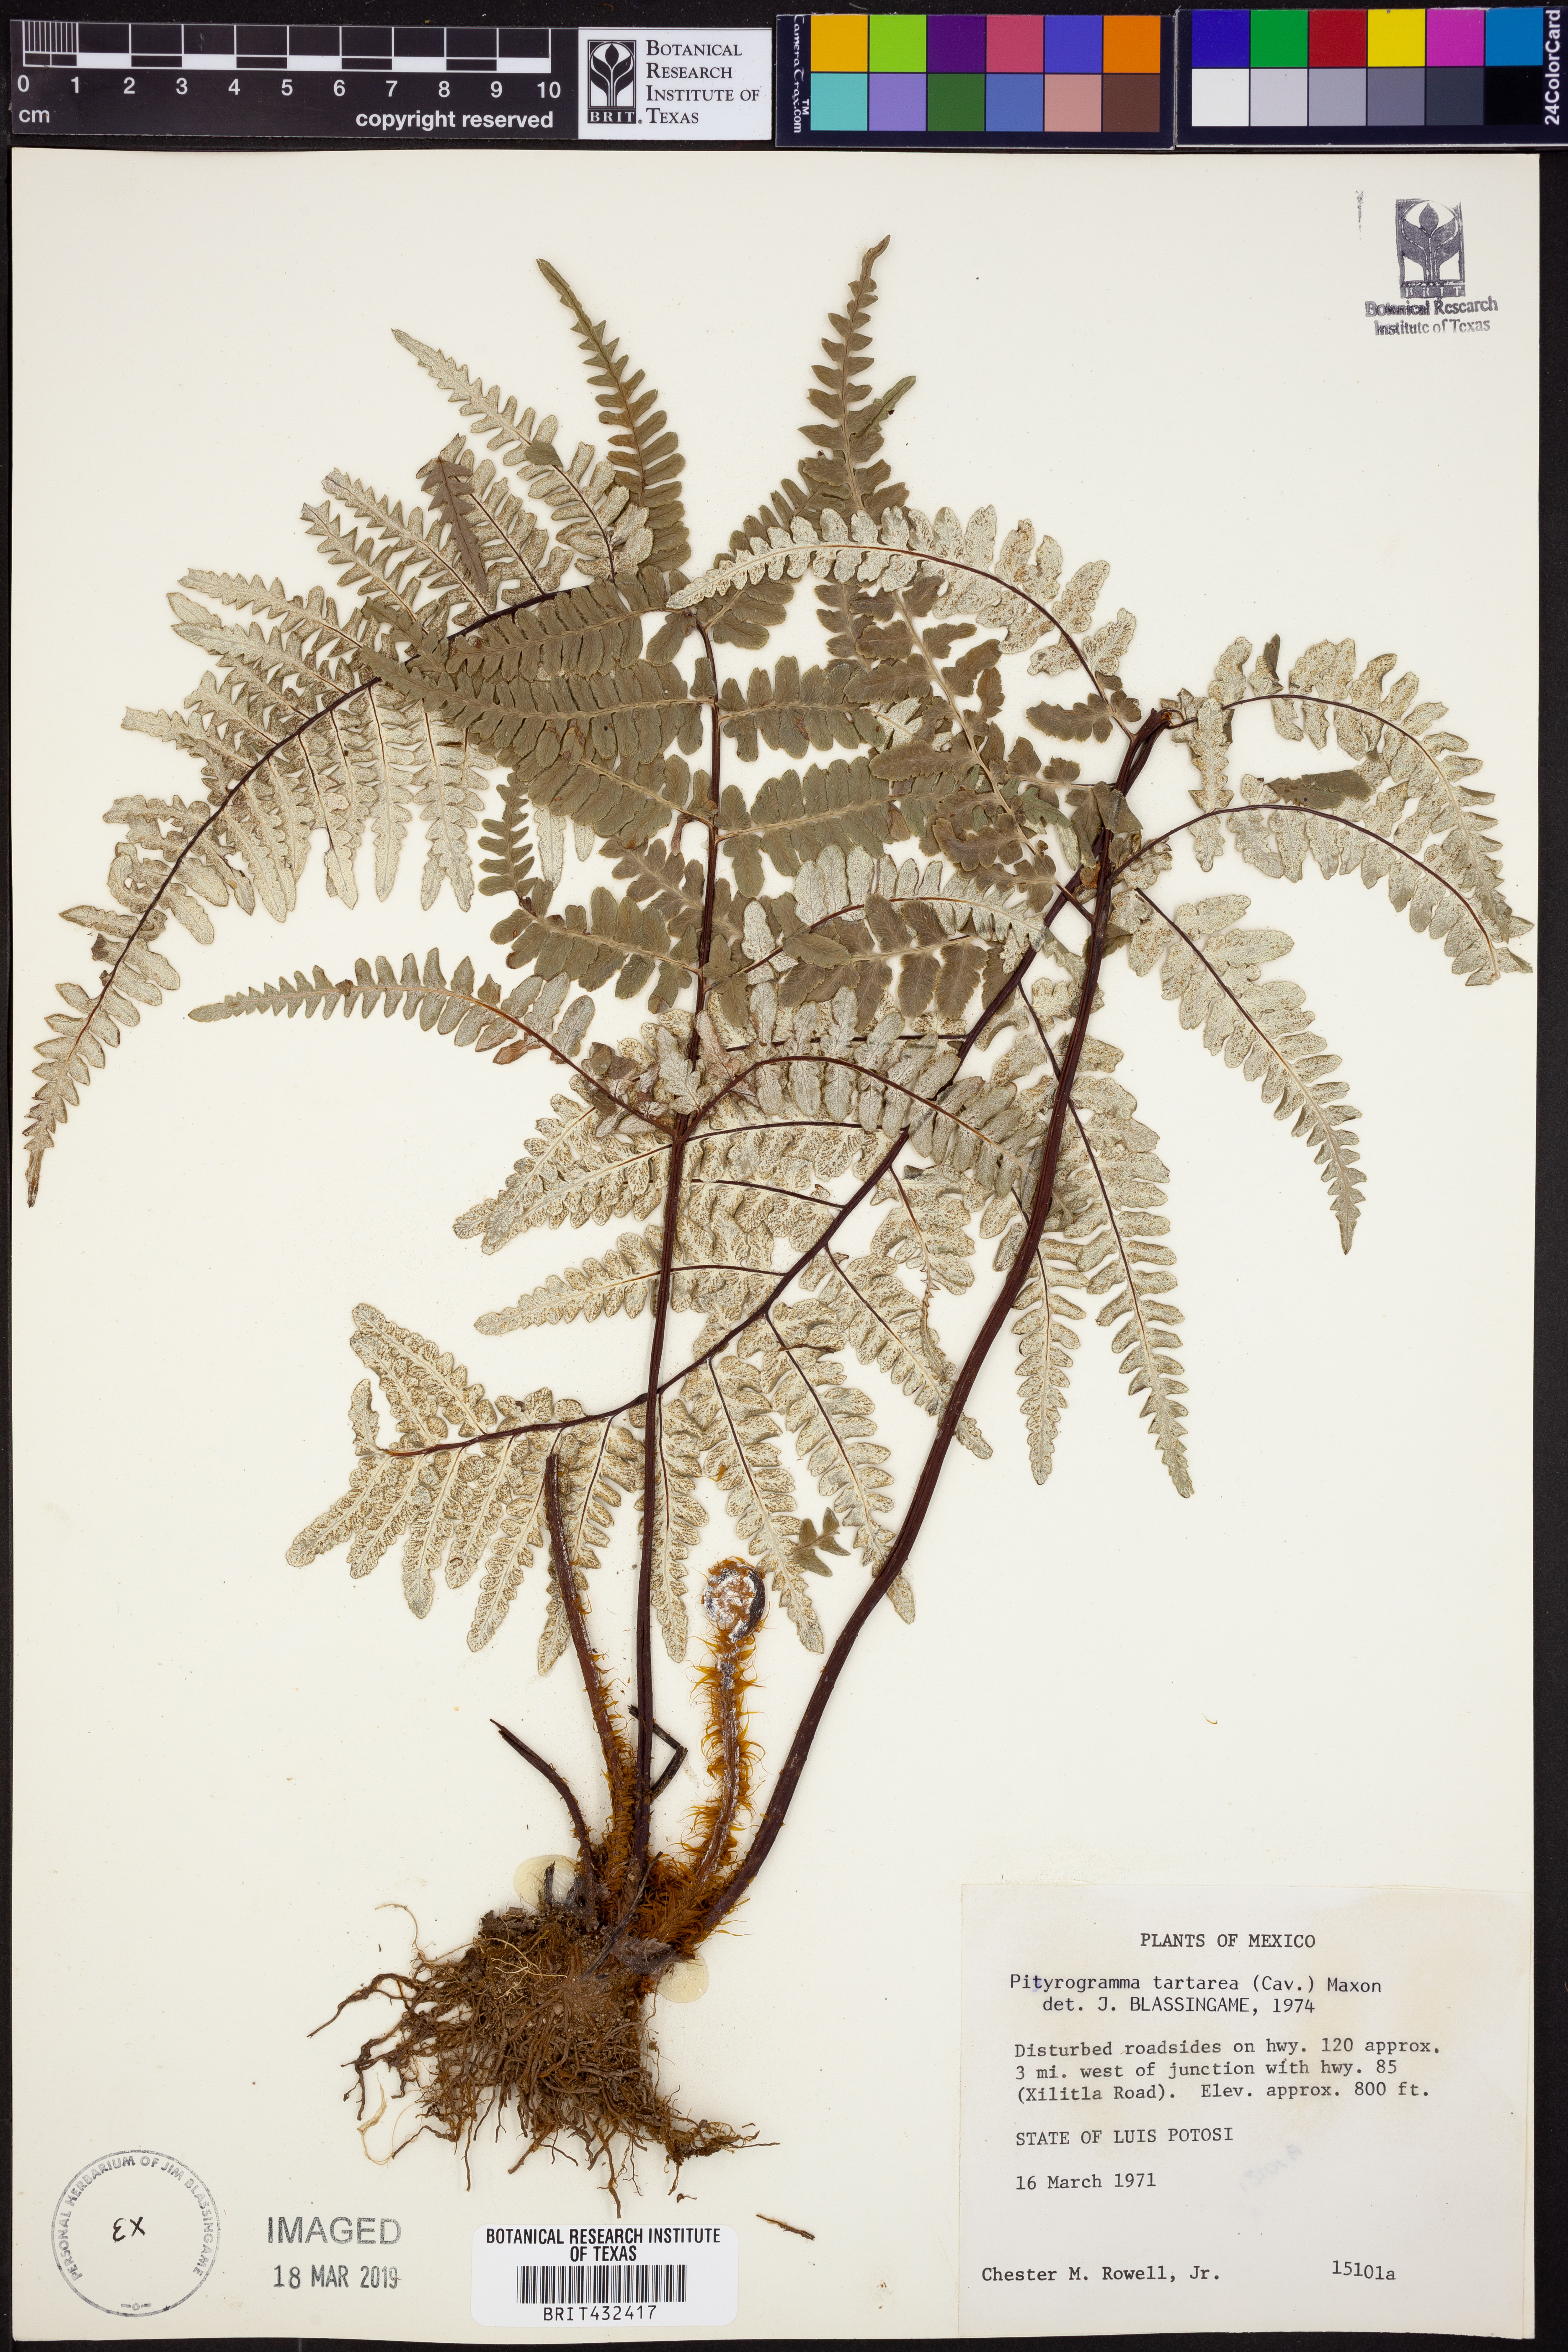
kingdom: Plantae
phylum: Tracheophyta
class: Polypodiopsida
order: Polypodiales
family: Pteridaceae
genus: Pityrogramma
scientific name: Pityrogramma ebenea
